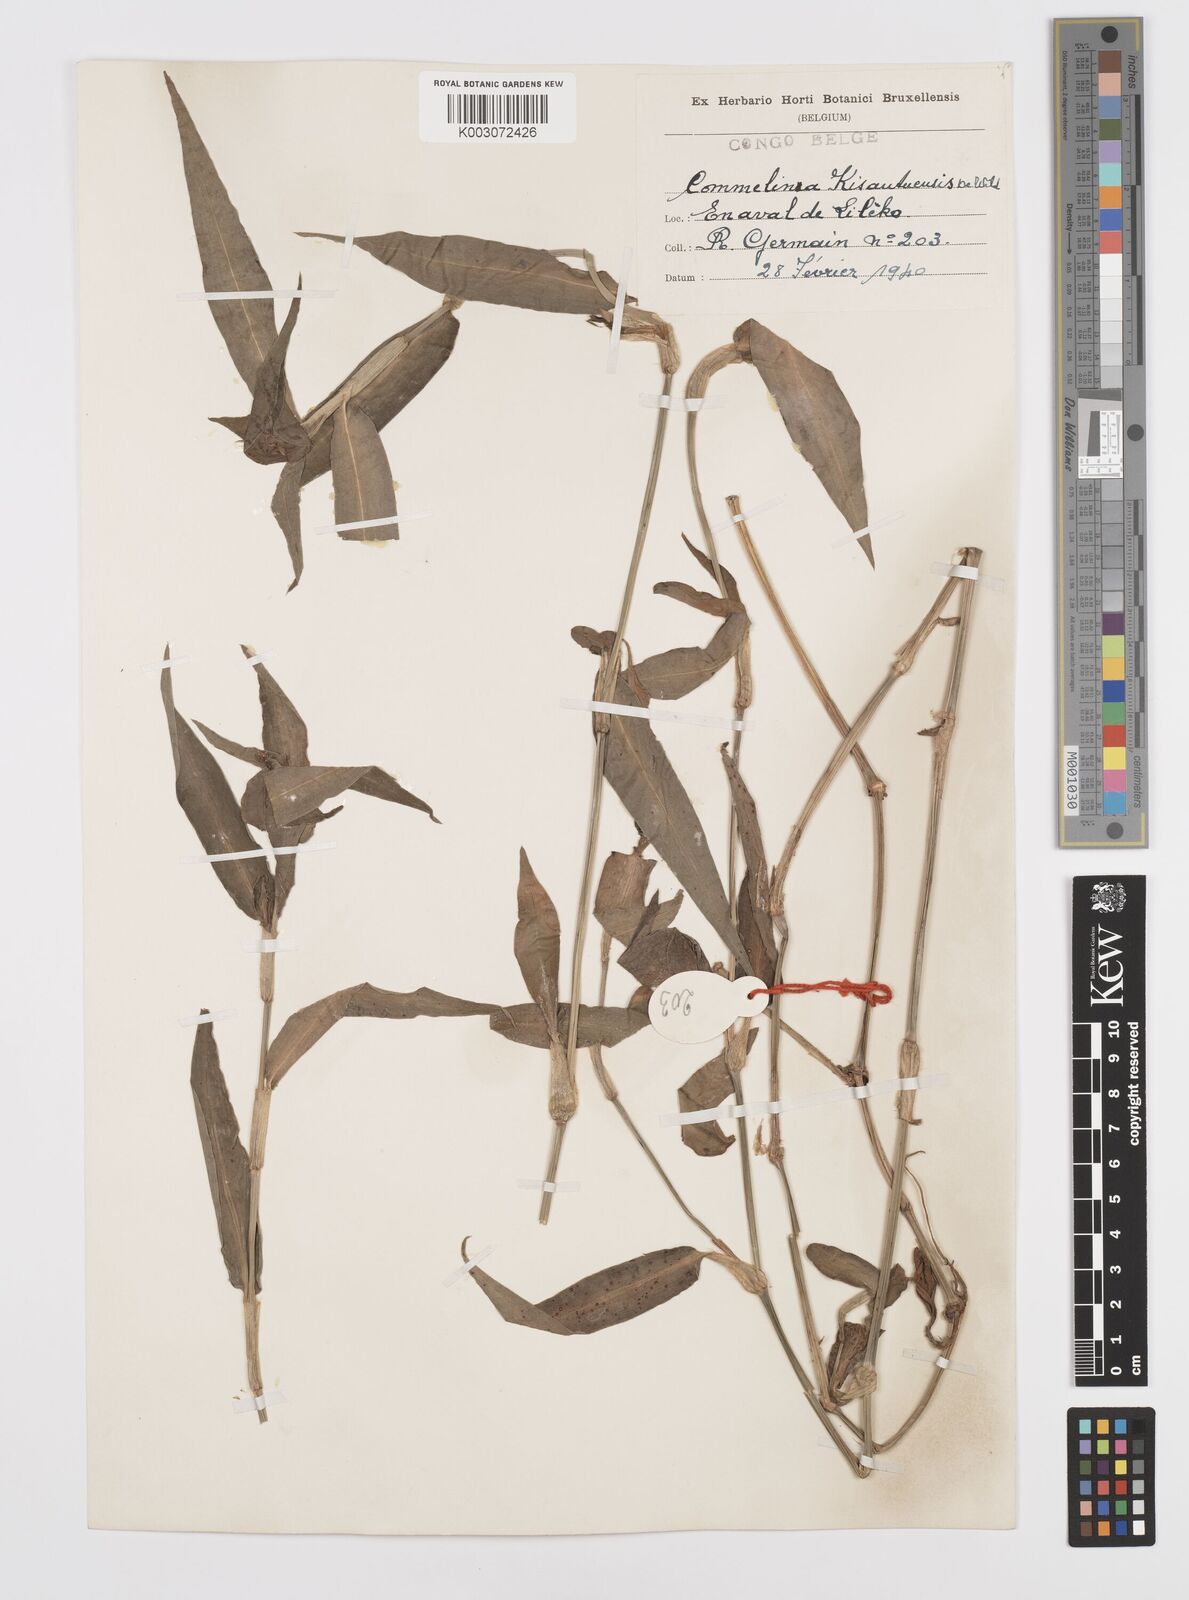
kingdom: Plantae
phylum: Tracheophyta
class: Liliopsida
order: Commelinales
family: Commelinaceae
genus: Commelina
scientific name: Commelina kisantuensis
